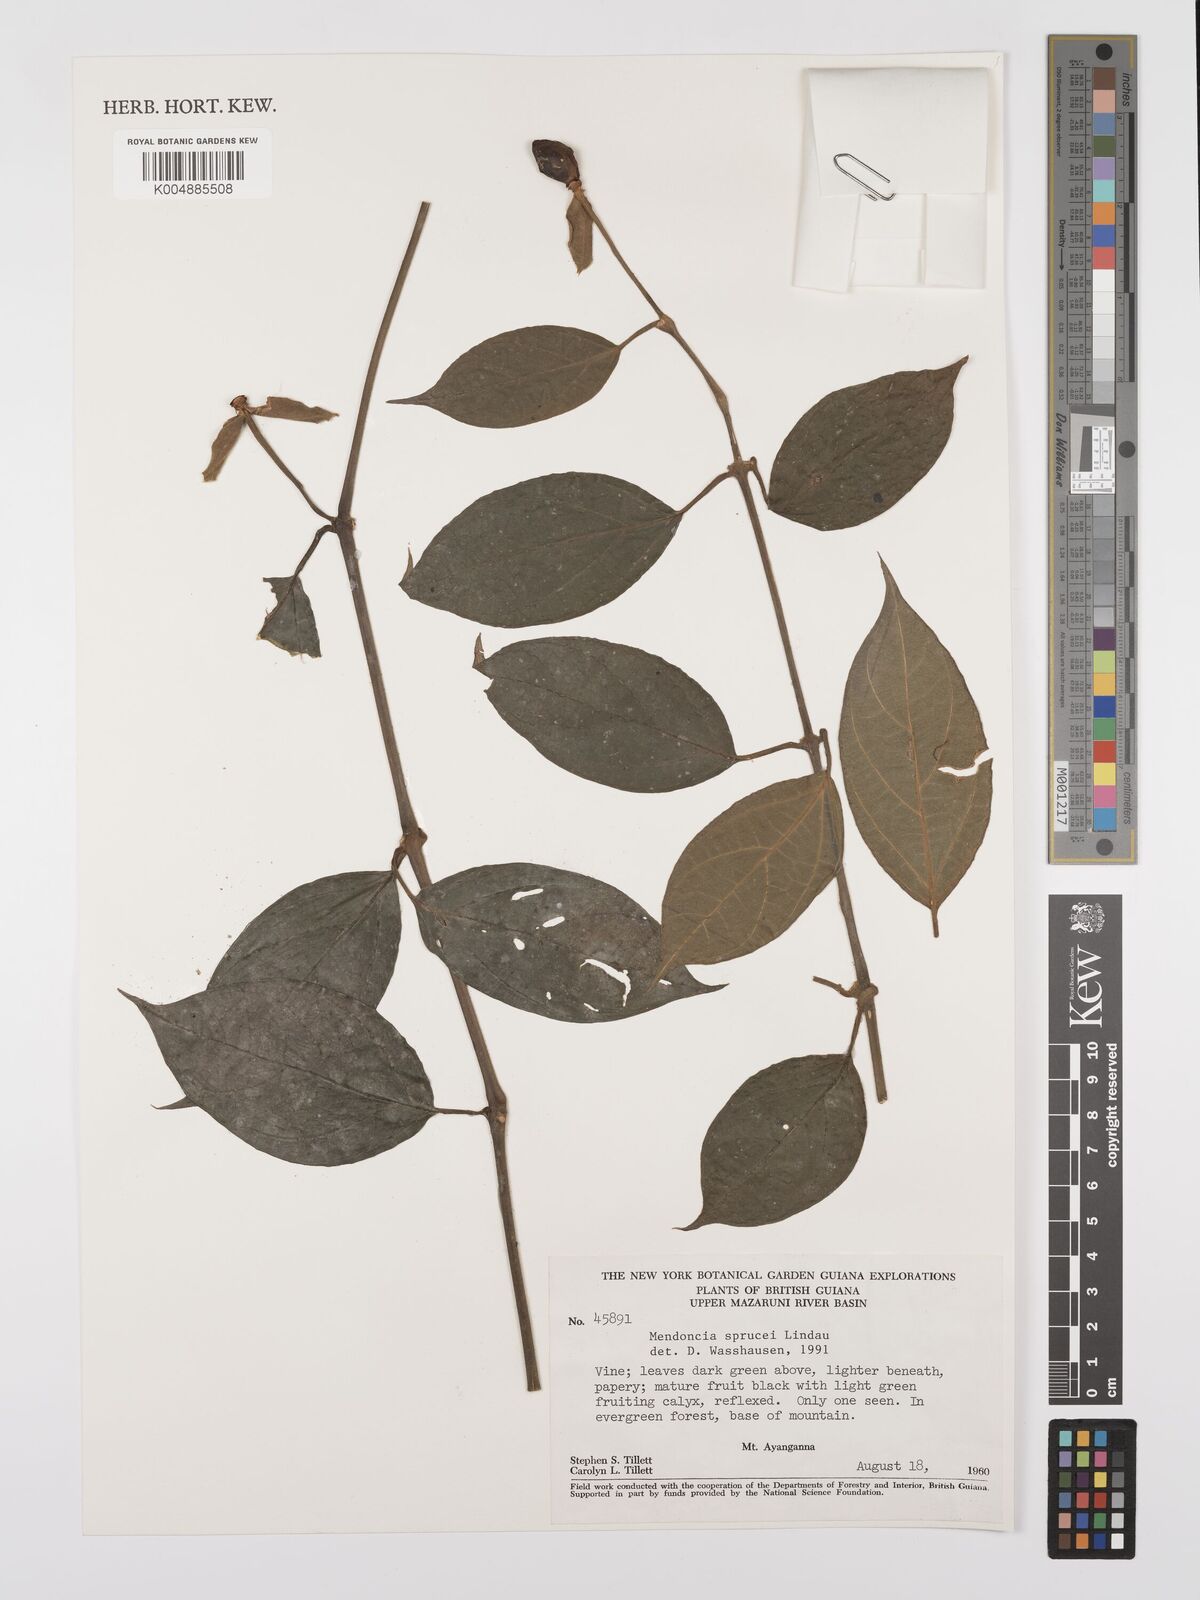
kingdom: Plantae
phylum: Tracheophyta
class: Magnoliopsida
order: Lamiales
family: Acanthaceae
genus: Mendoncia
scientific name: Mendoncia sprucei
